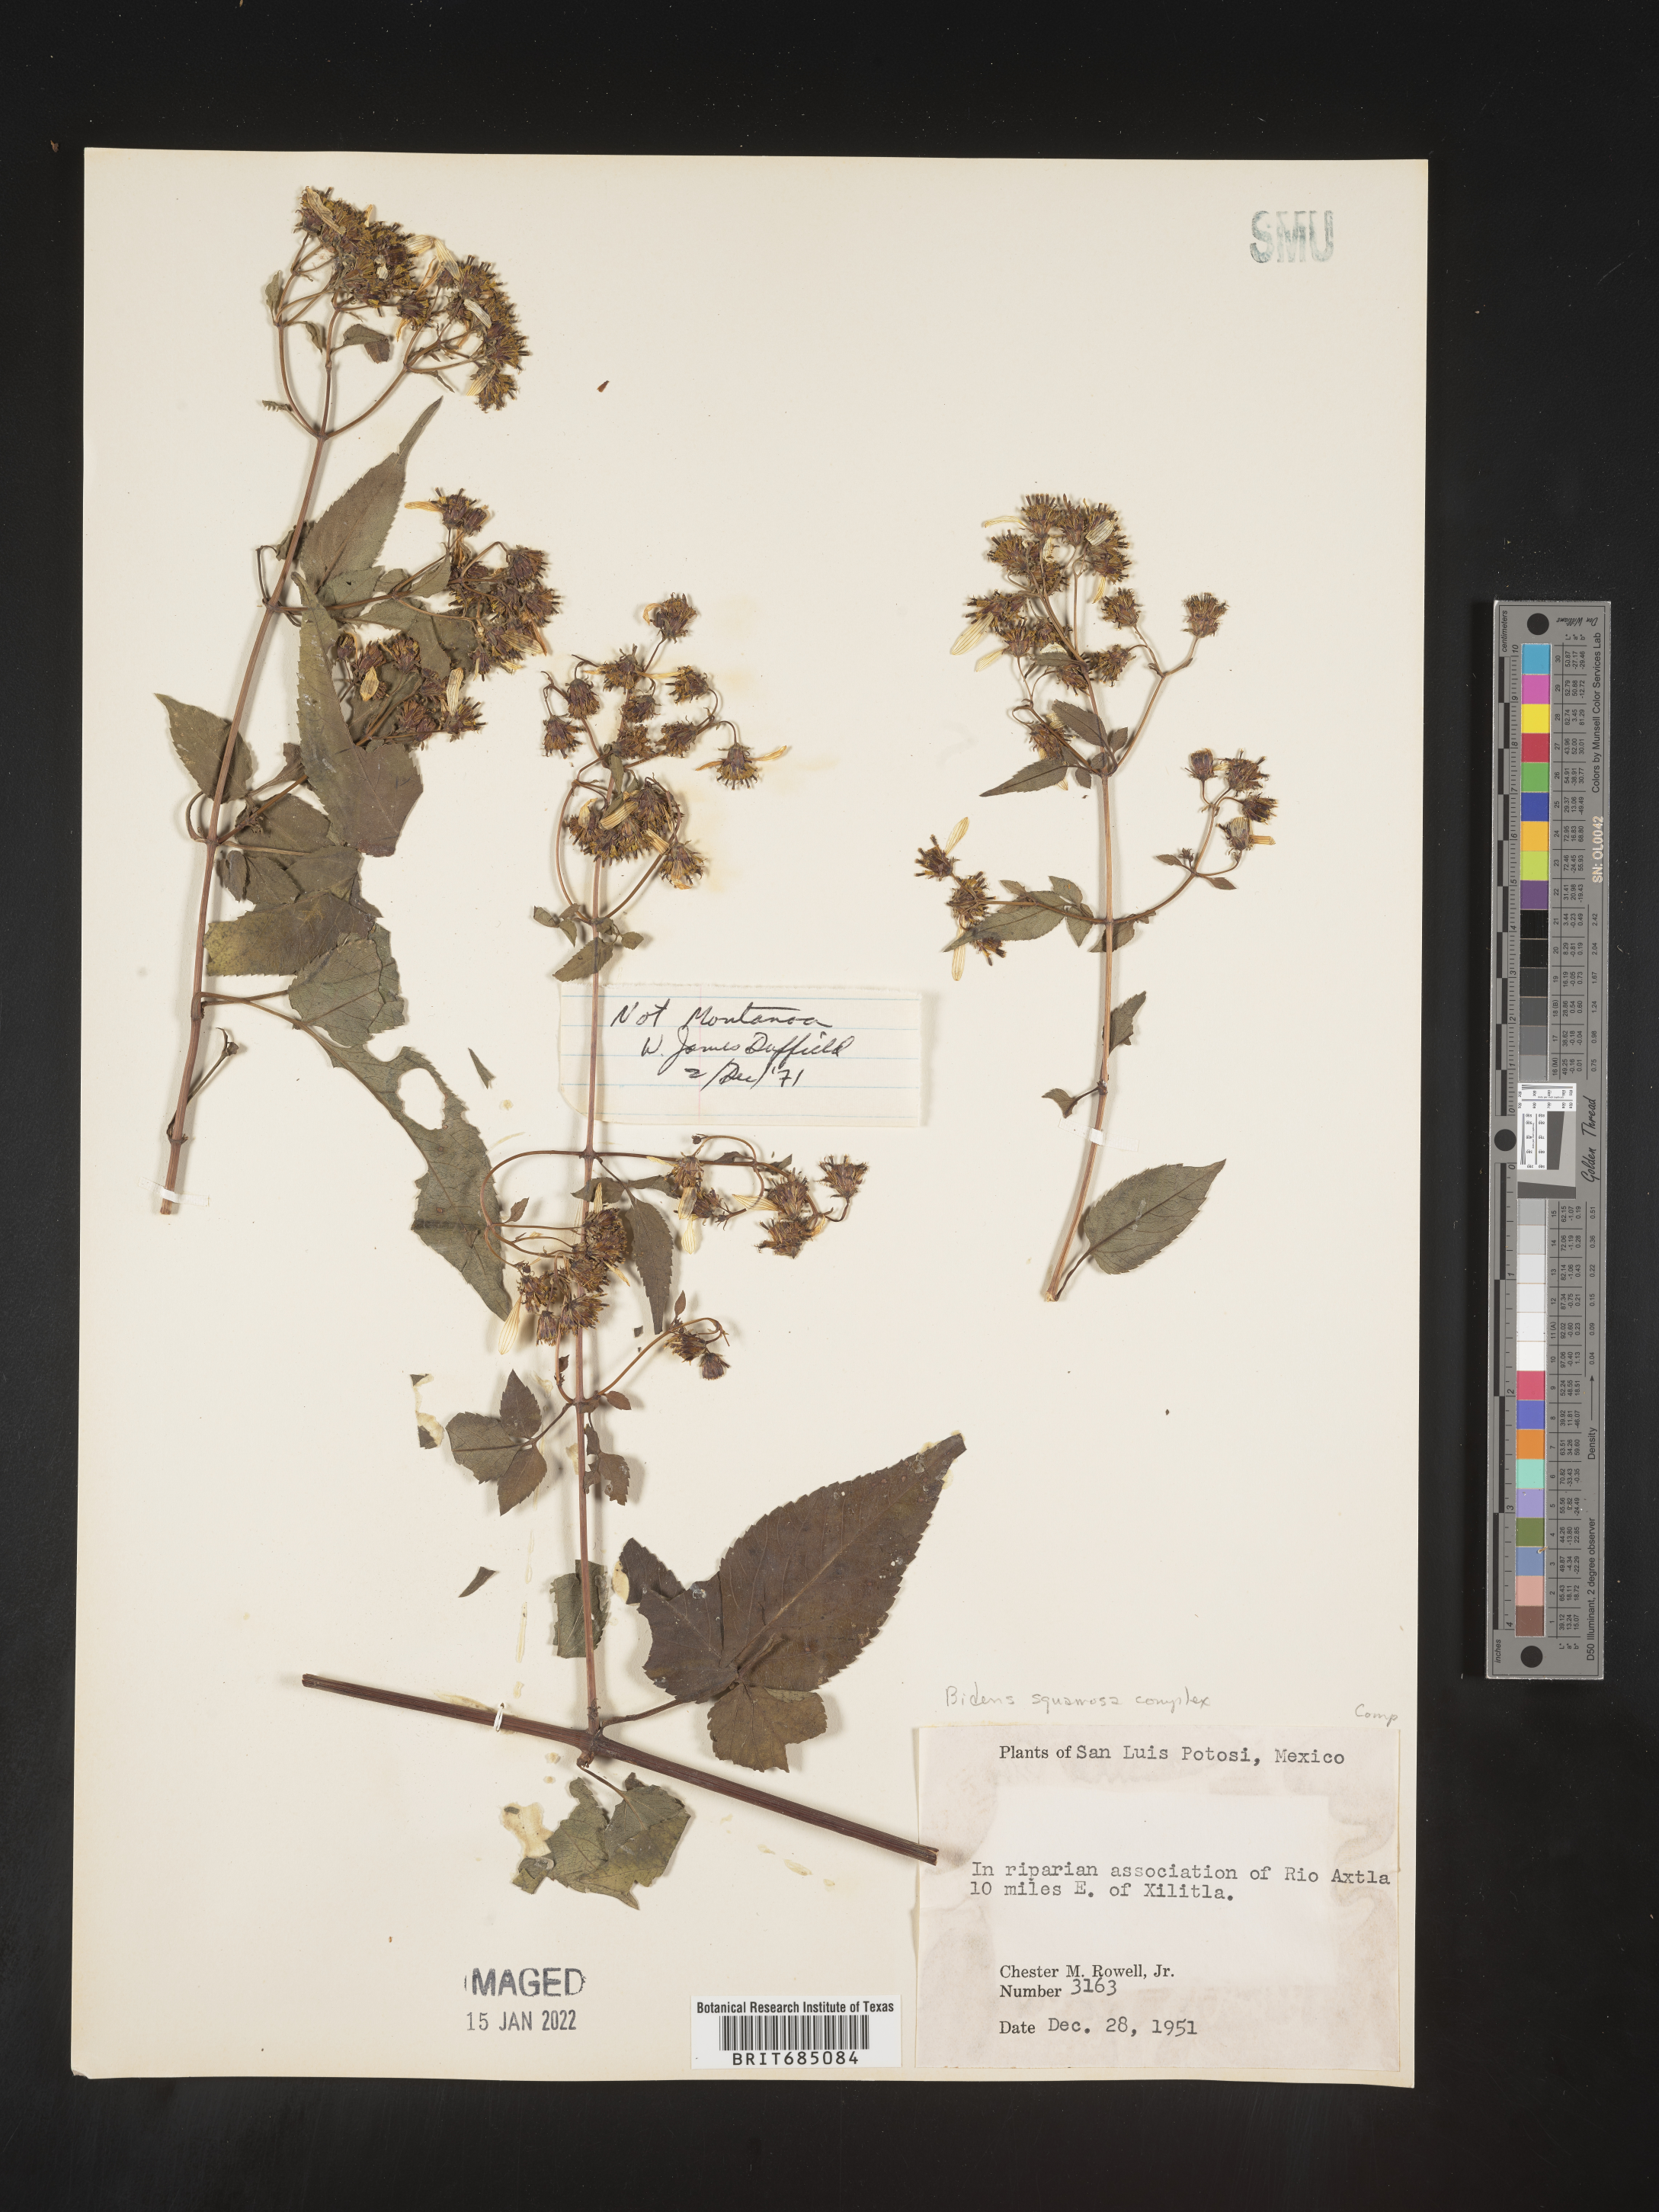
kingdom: Plantae
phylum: Tracheophyta
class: Magnoliopsida
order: Asterales
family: Asteraceae
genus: Bidens
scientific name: Bidens rubicundula
